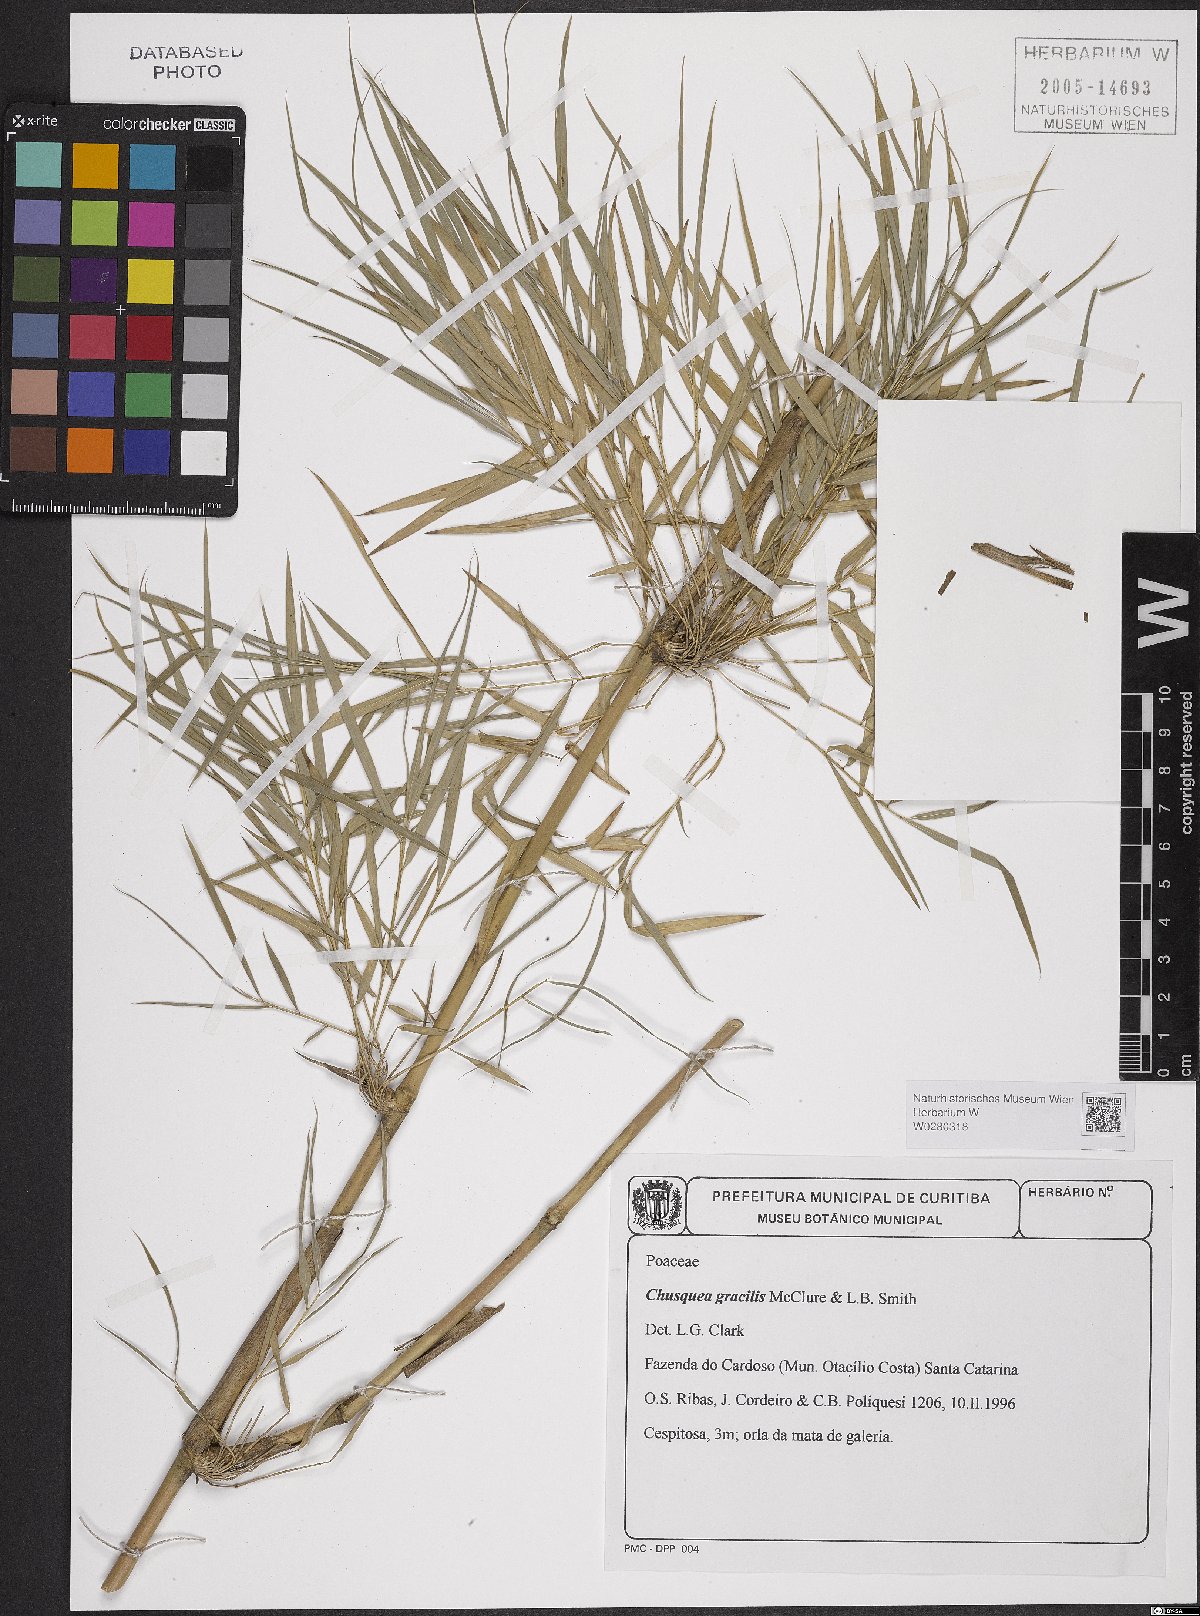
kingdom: Plantae
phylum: Tracheophyta
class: Liliopsida
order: Poales
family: Poaceae
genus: Chusquea
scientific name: Chusquea gracilis
